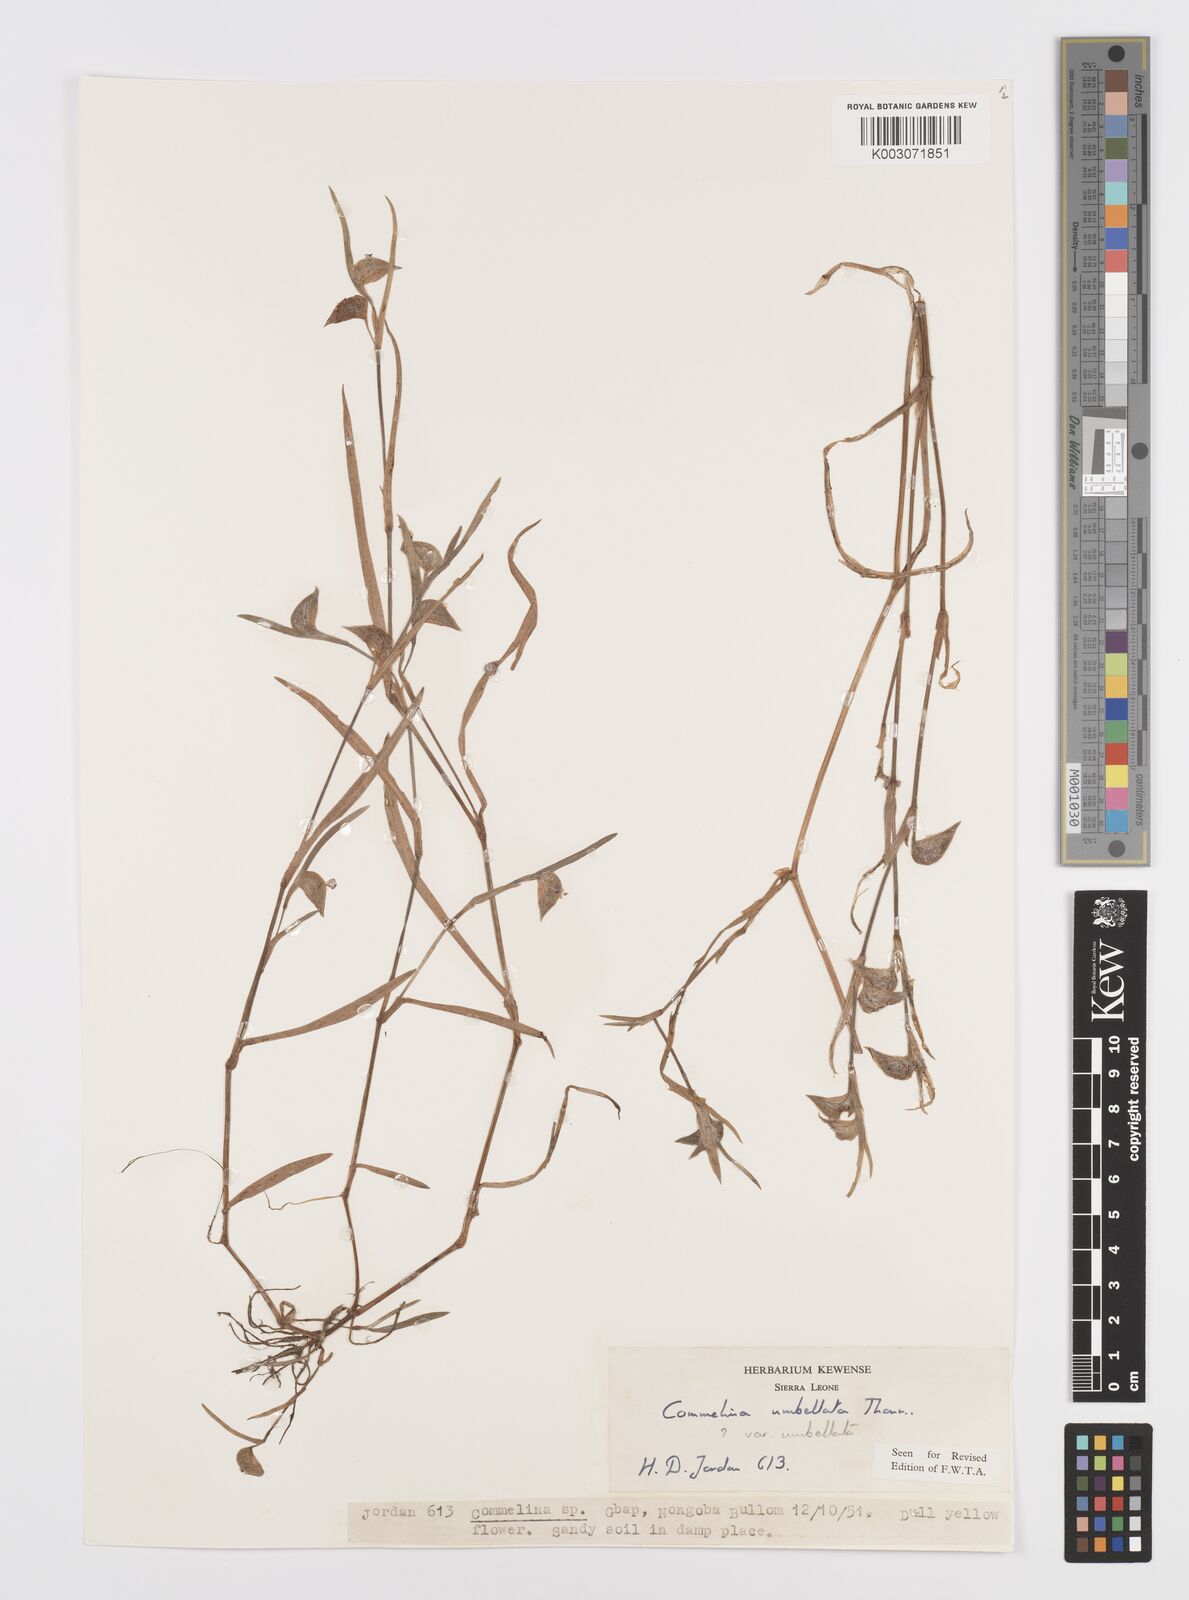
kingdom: Plantae
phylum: Tracheophyta
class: Liliopsida
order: Commelinales
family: Commelinaceae
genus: Commelina
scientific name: Commelina
